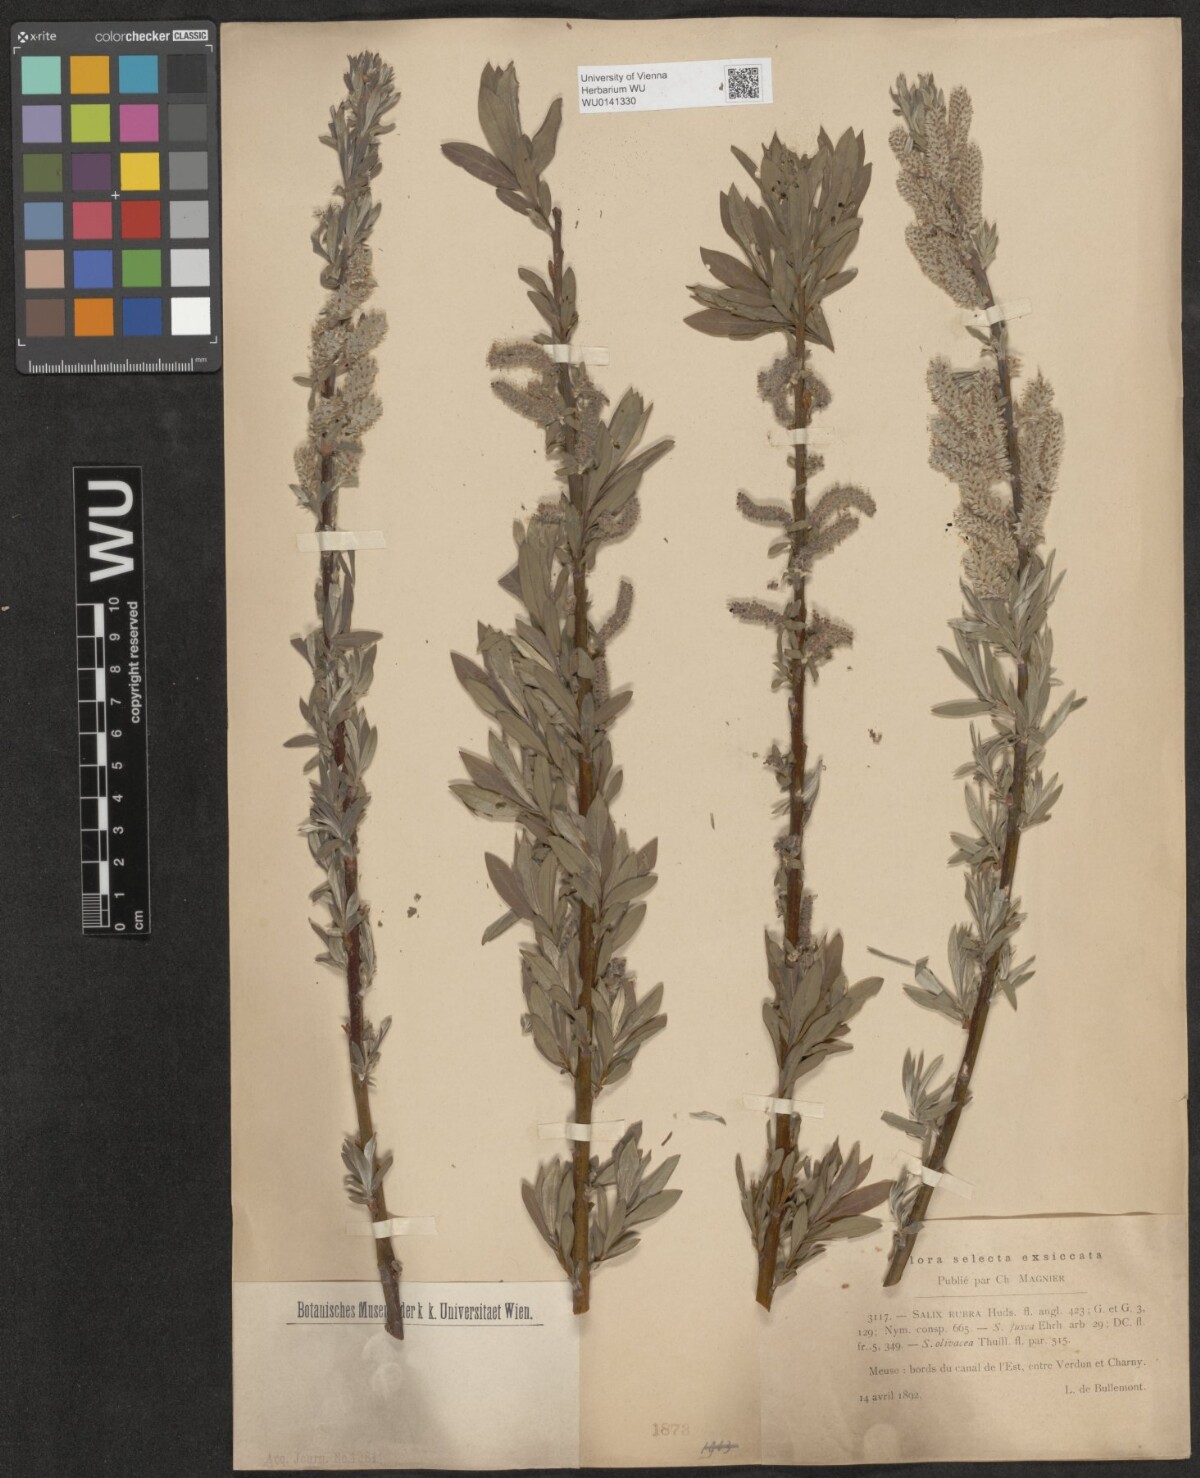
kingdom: Plantae
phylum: Tracheophyta
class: Magnoliopsida
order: Malpighiales
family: Salicaceae
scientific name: Salicaceae
